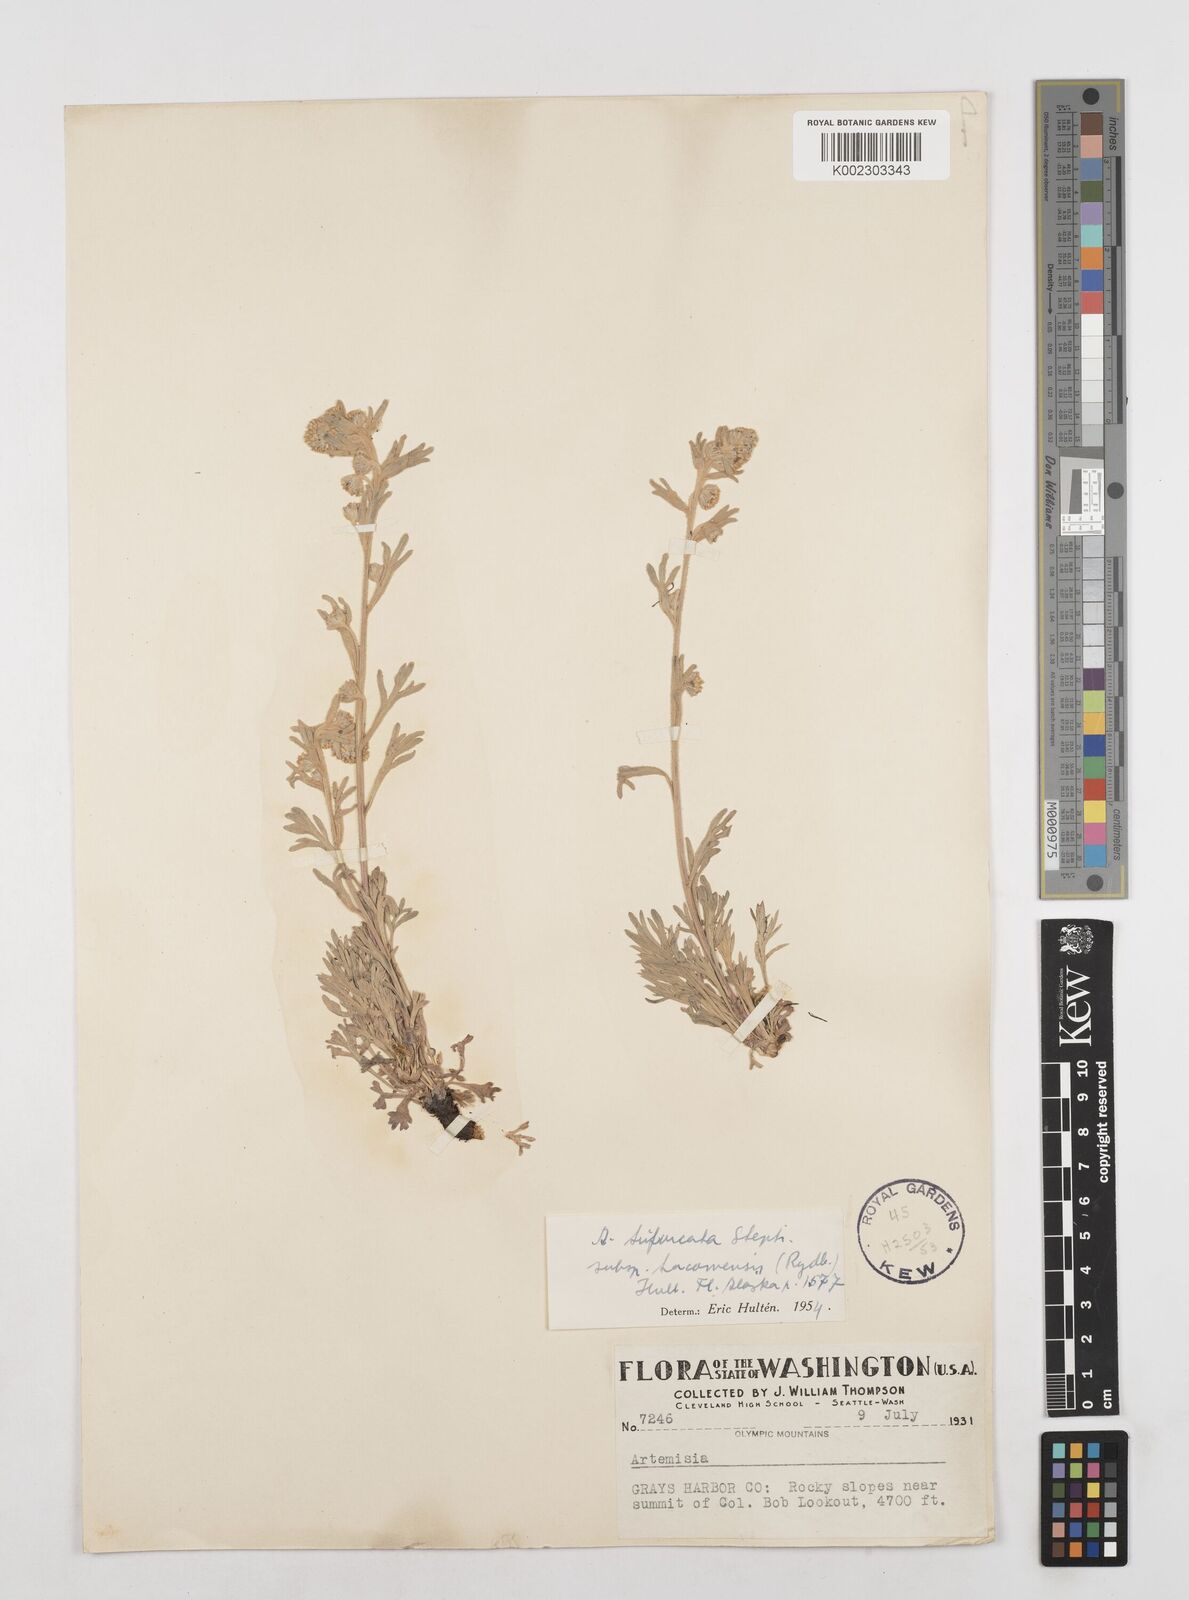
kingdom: Plantae
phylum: Tracheophyta
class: Magnoliopsida
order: Asterales
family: Asteraceae
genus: Artemisia
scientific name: Artemisia furcata
